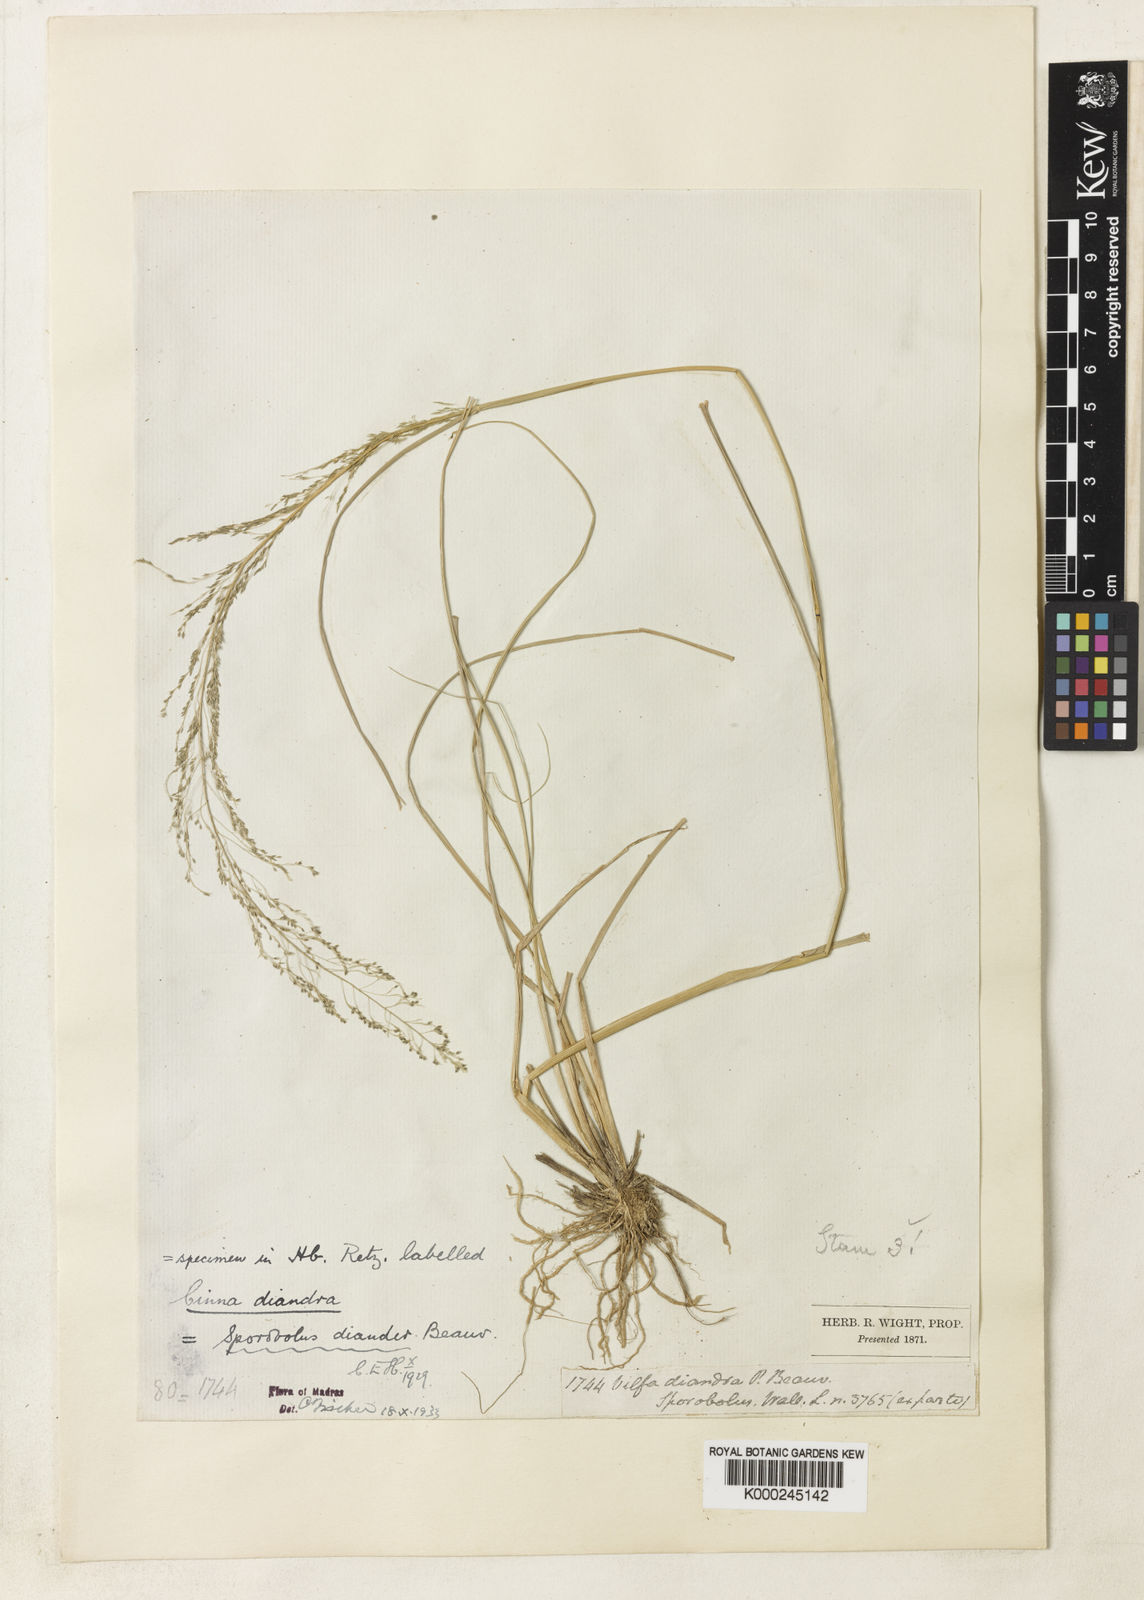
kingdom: Plantae
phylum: Tracheophyta
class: Liliopsida
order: Poales
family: Poaceae
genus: Sporobolus
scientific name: Sporobolus diandrus
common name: Tussock dropseed
